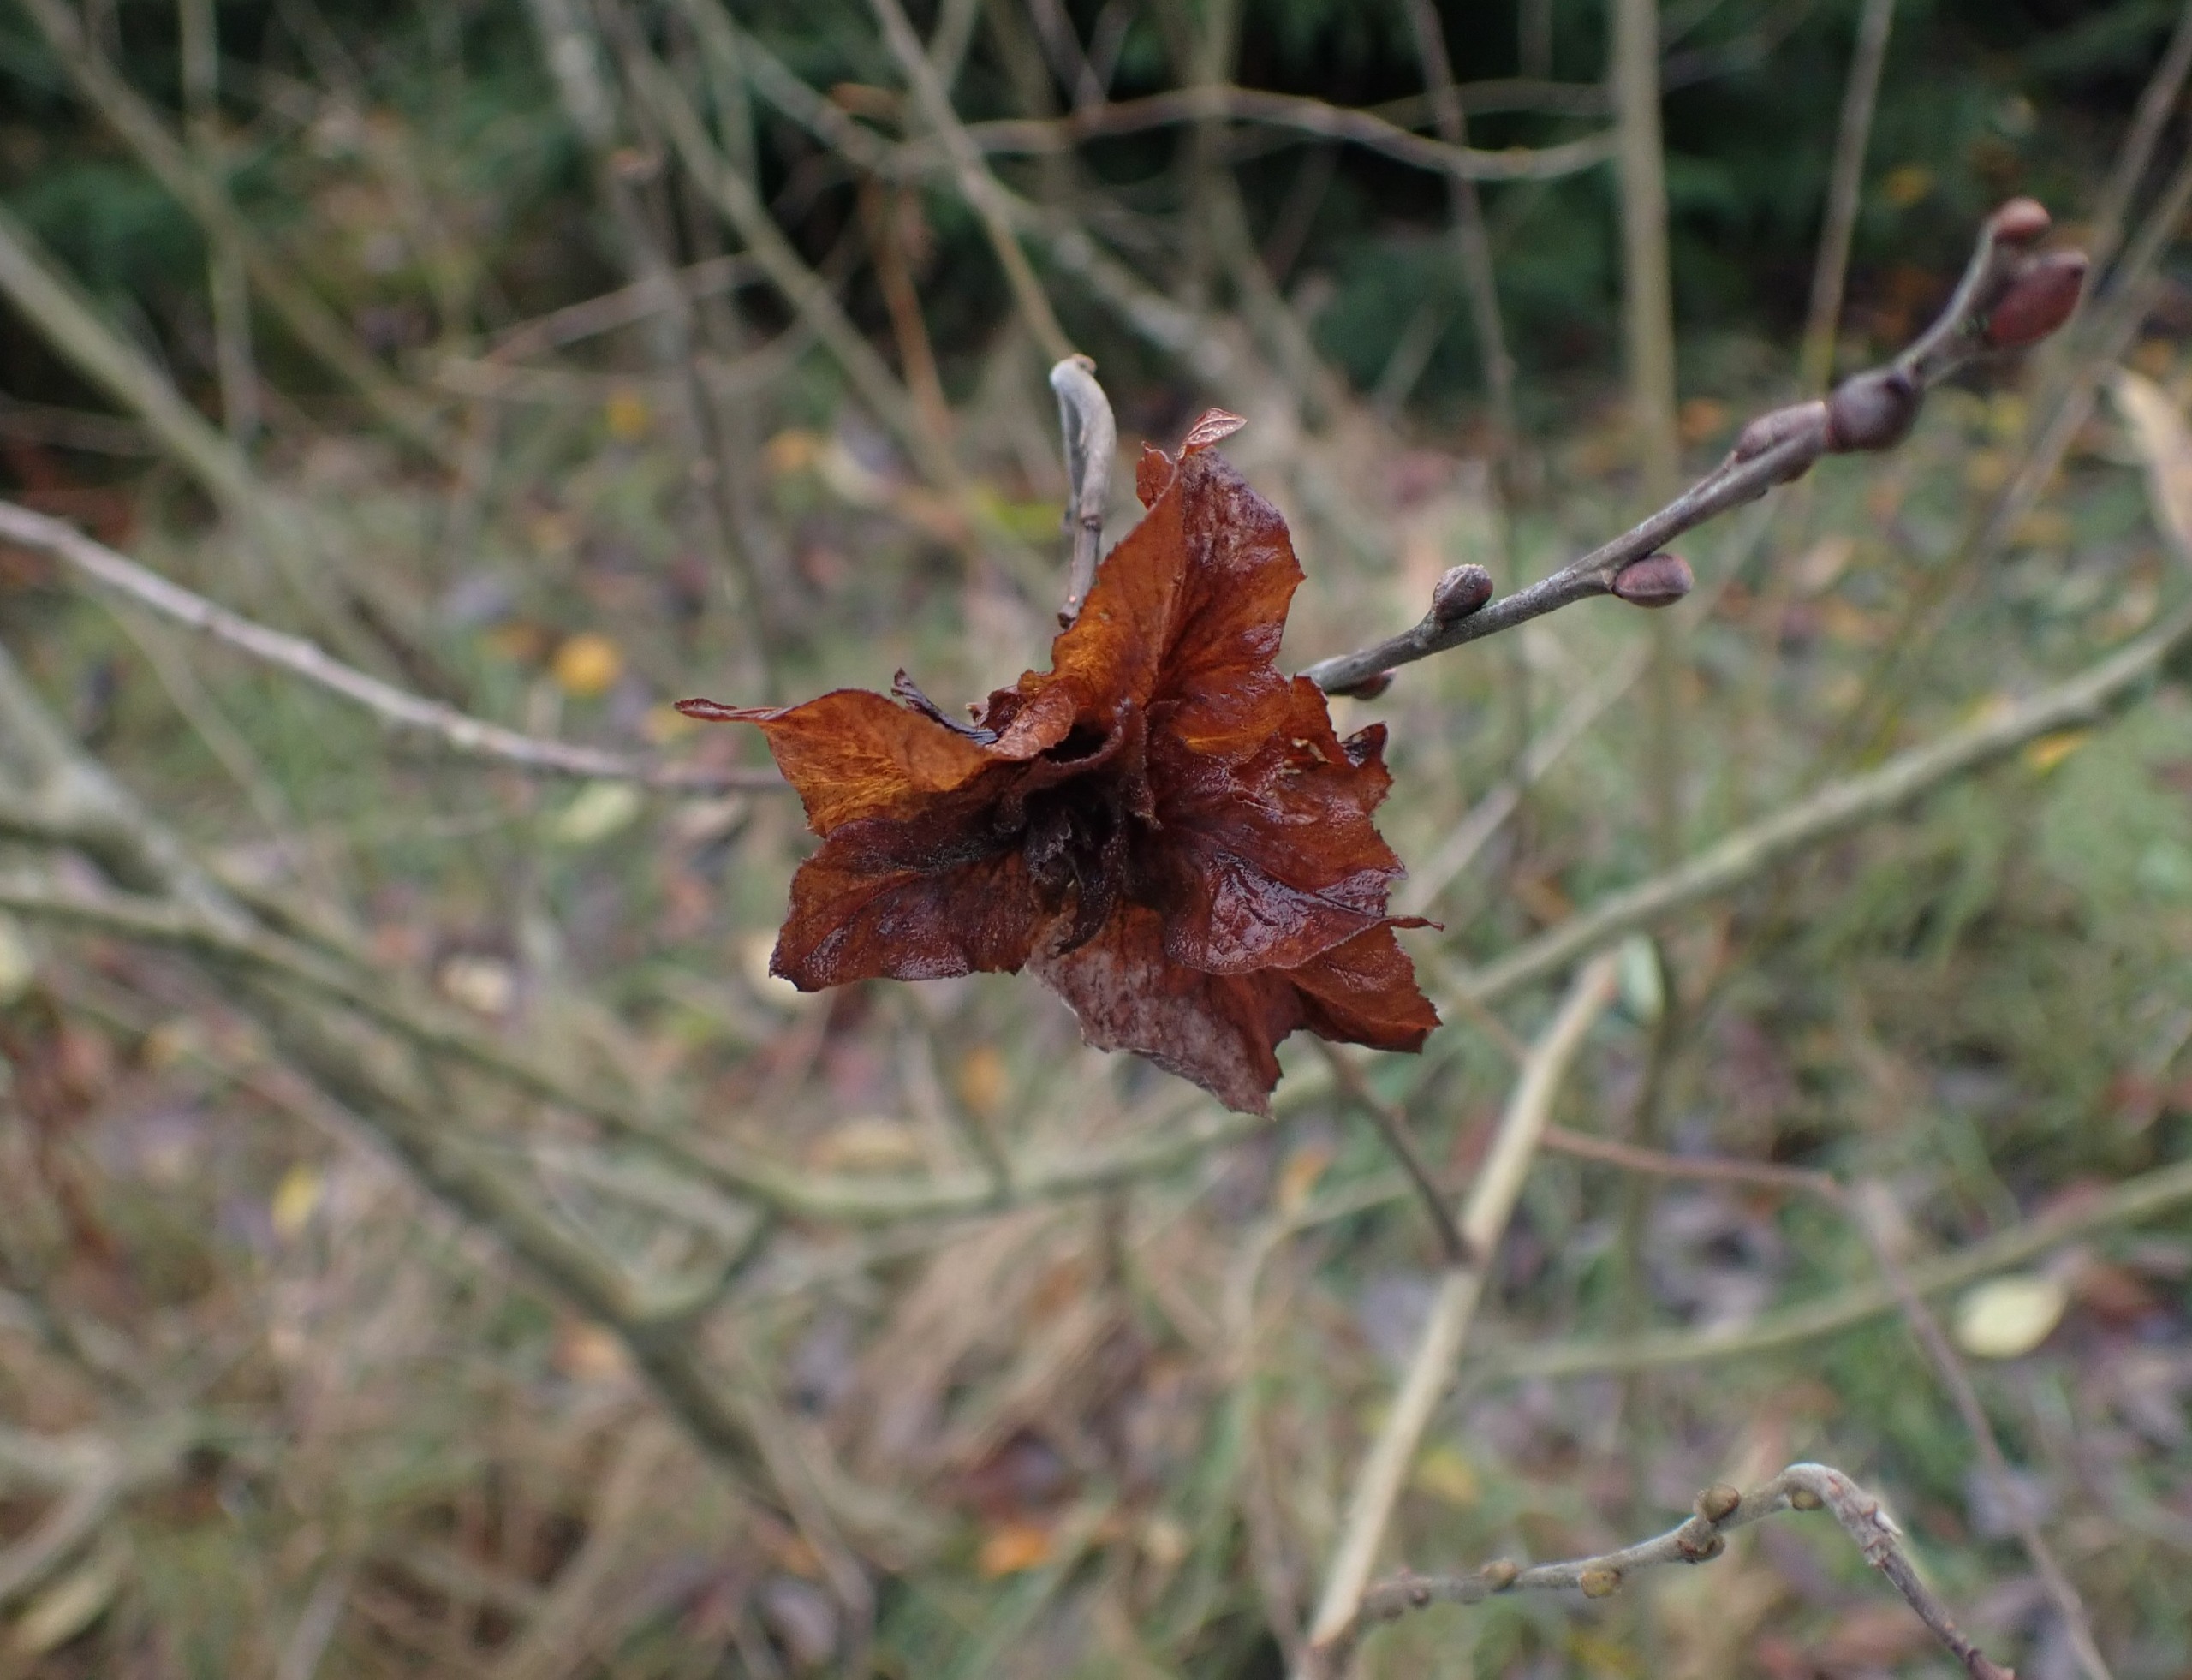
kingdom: Animalia
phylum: Arthropoda
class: Insecta
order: Diptera
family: Cecidomyiidae
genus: Rabdophaga
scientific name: Rabdophaga rosaria
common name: Pilerosetgalmyg
